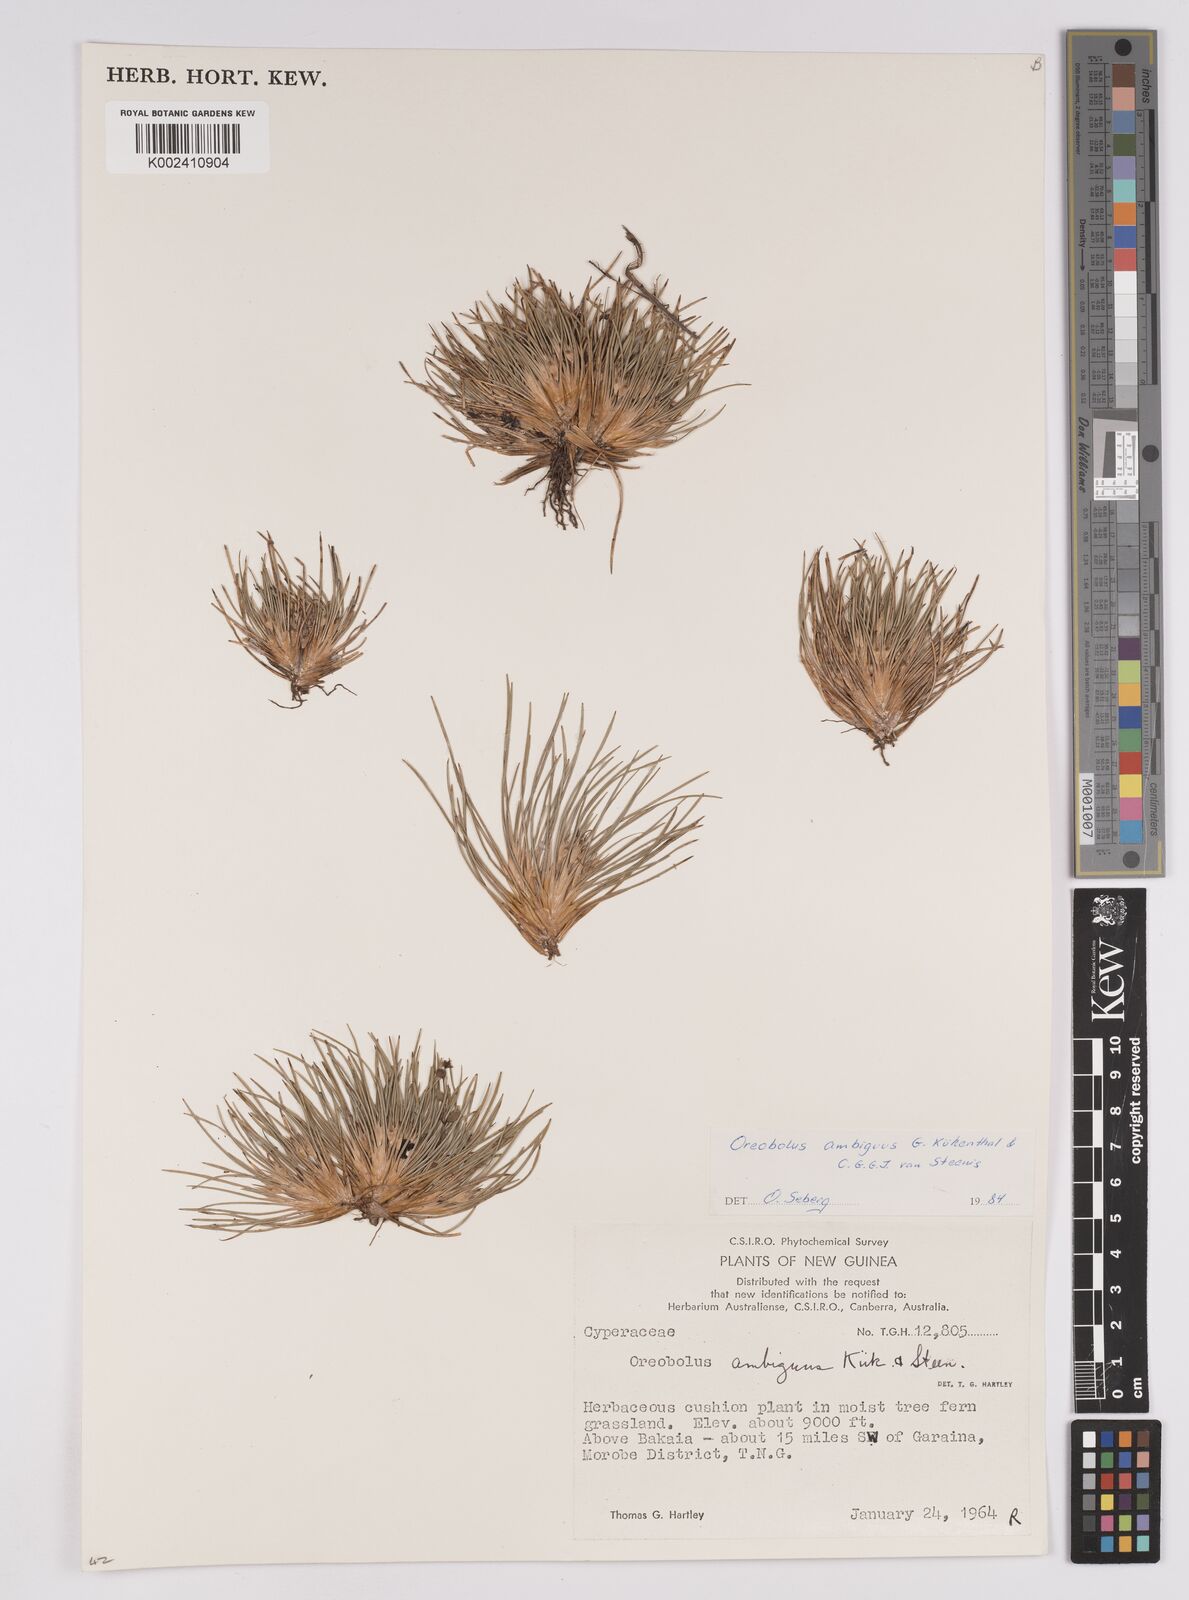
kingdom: Plantae
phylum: Tracheophyta
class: Liliopsida
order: Poales
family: Cyperaceae
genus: Oreobolus
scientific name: Oreobolus ambiguus
